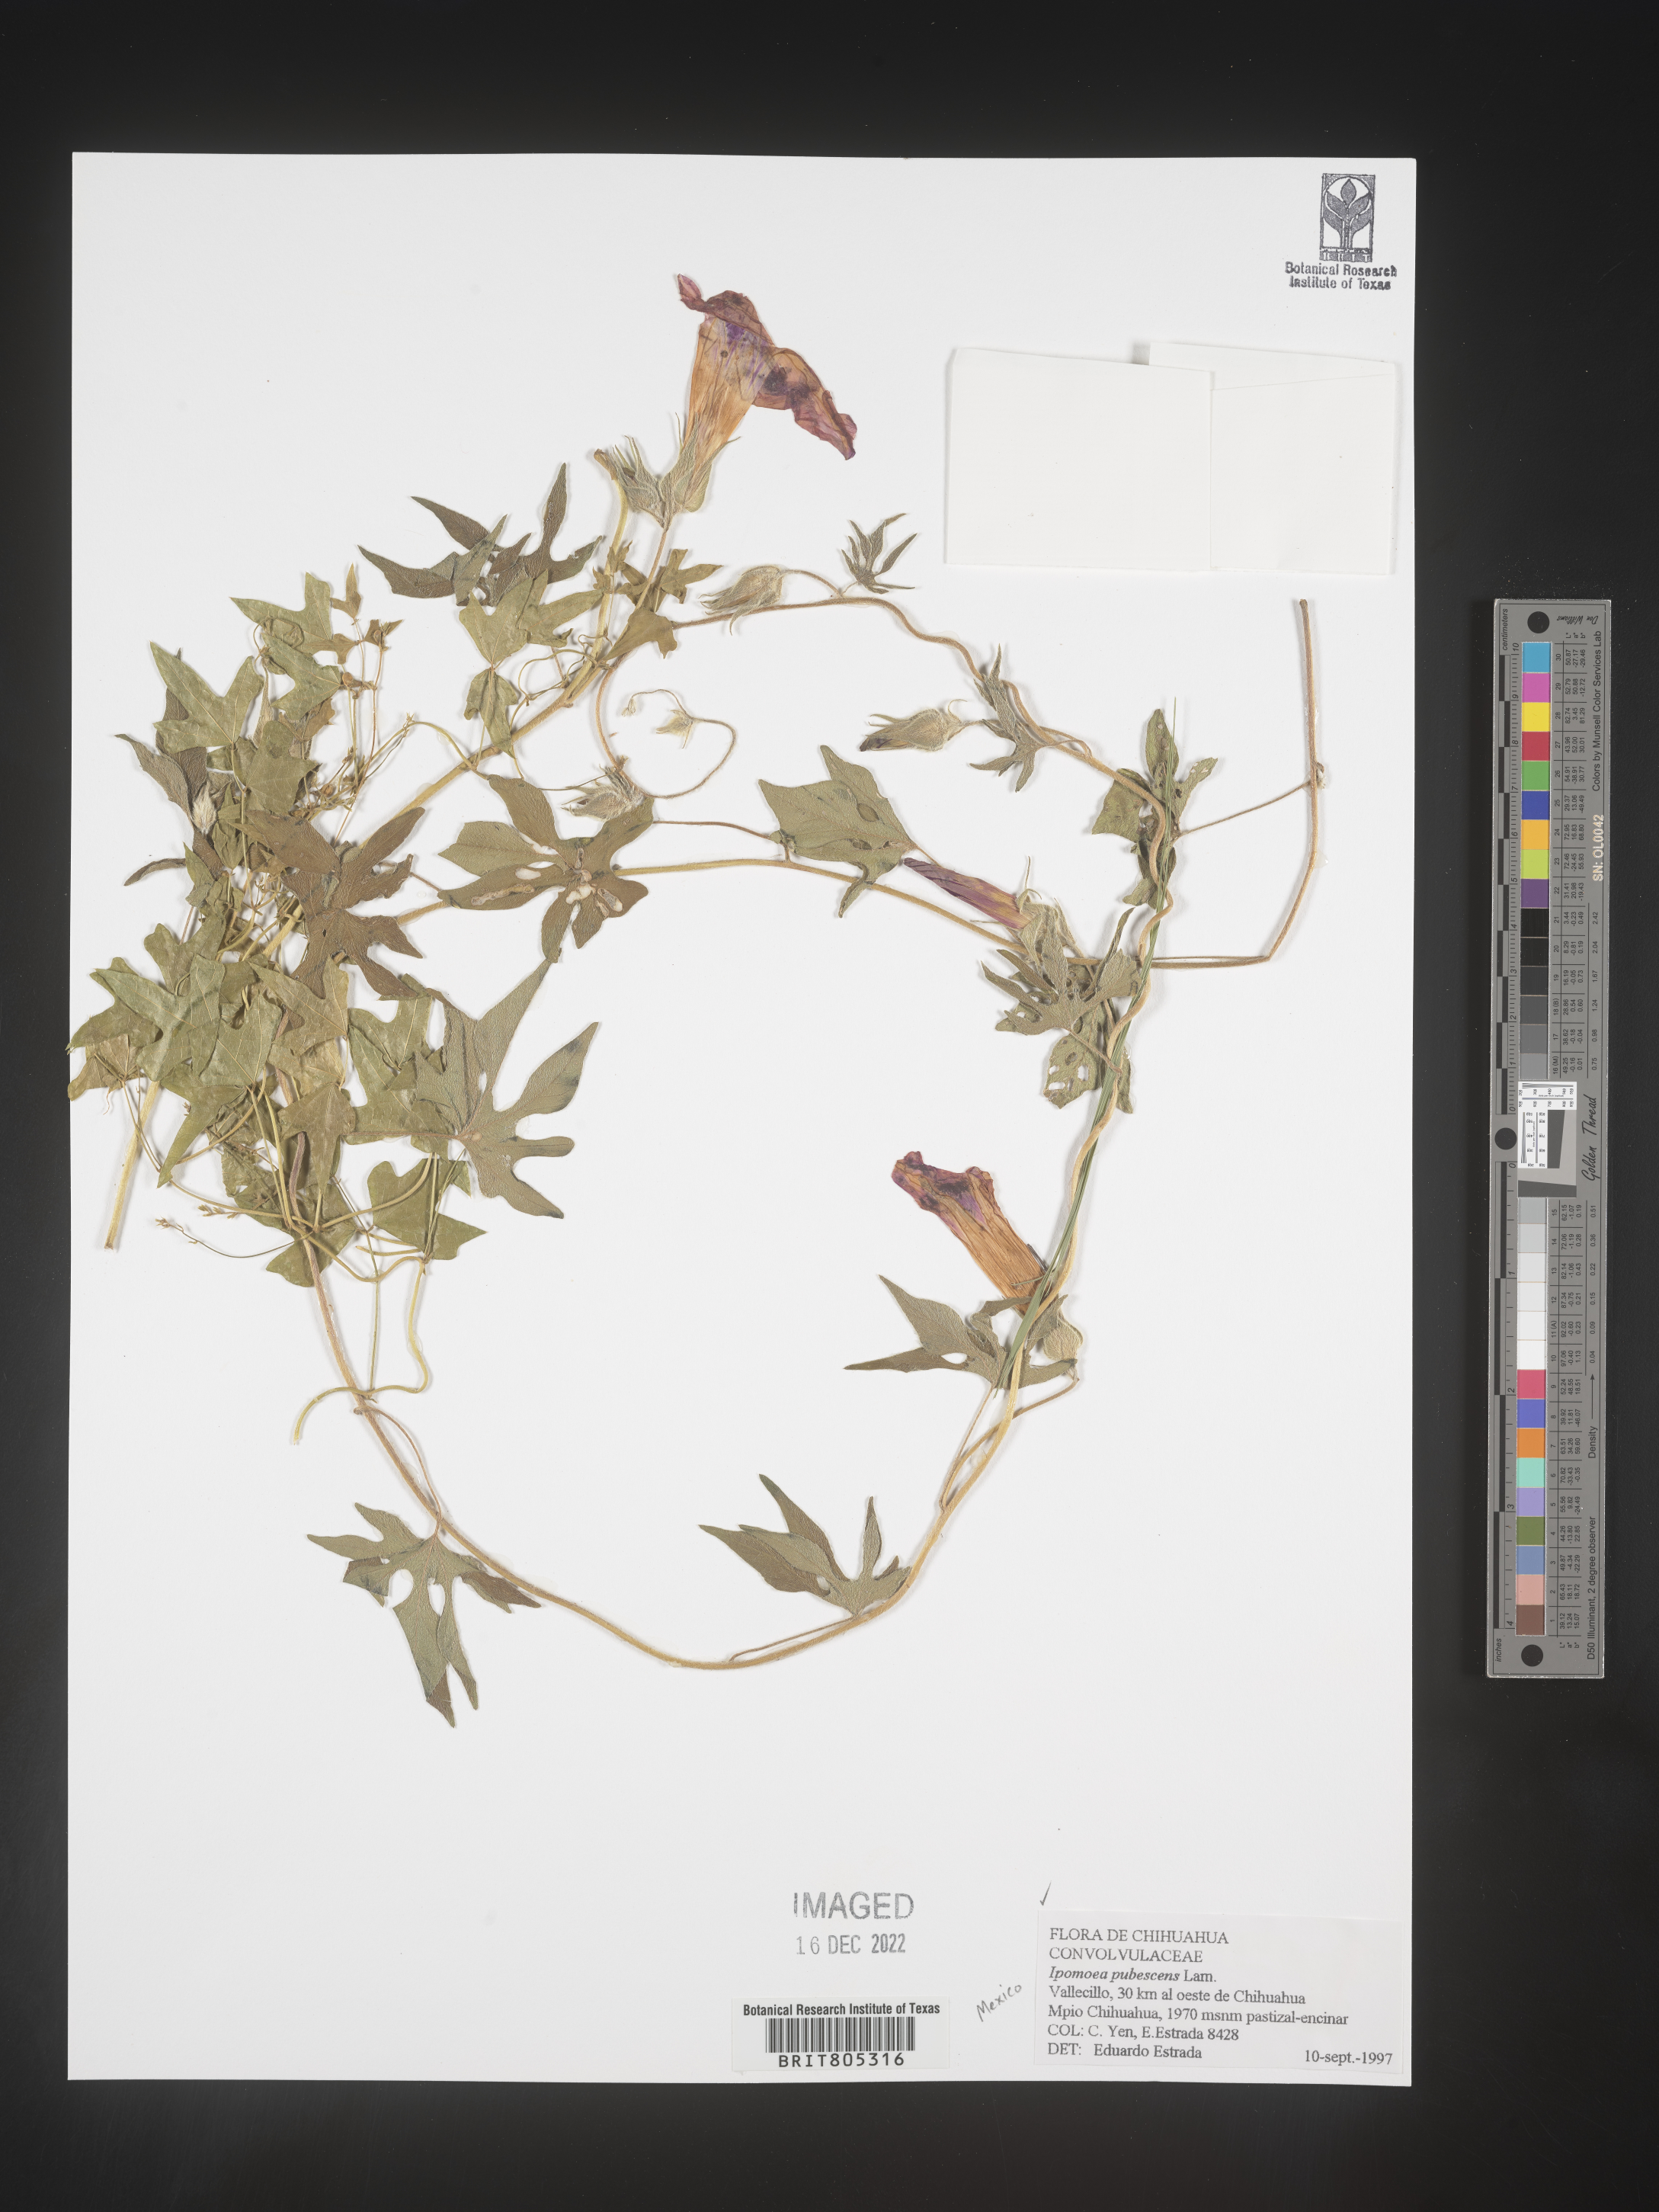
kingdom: Plantae
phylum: Tracheophyta
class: Magnoliopsida
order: Solanales
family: Convolvulaceae
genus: Ipomoea
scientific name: Ipomoea
